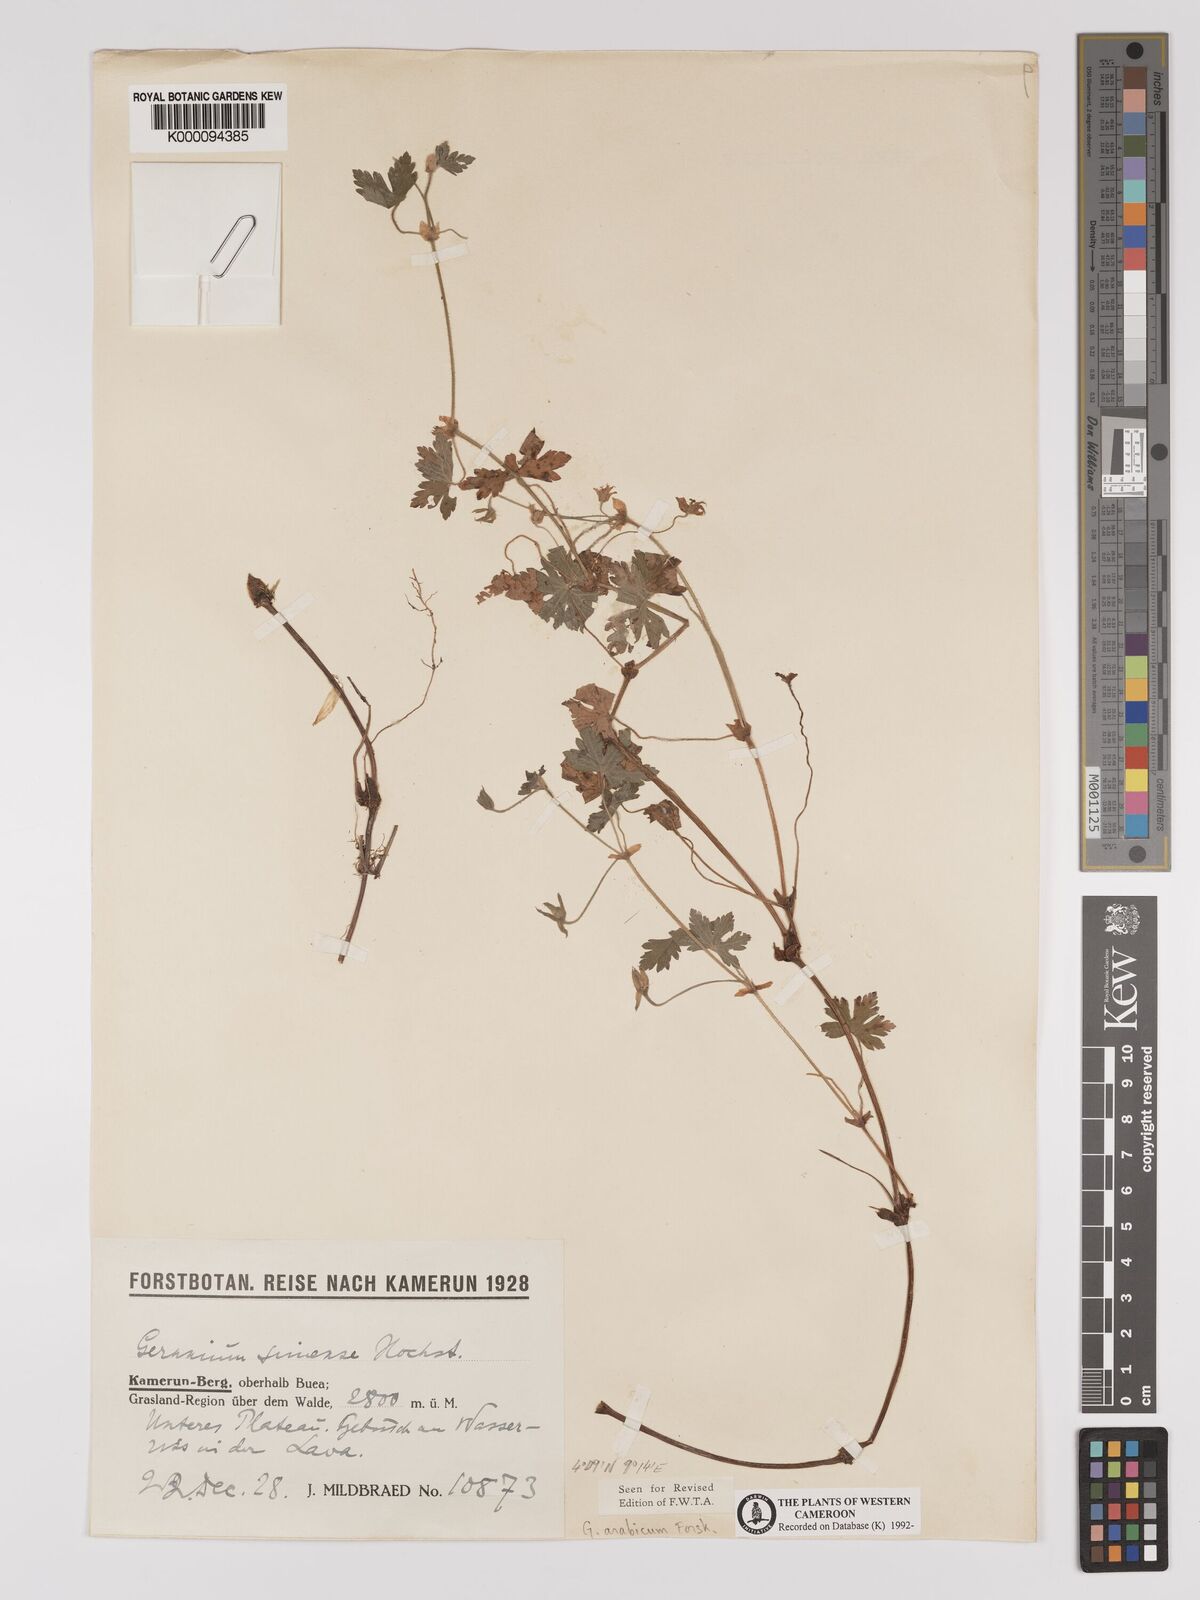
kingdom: Plantae
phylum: Tracheophyta
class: Magnoliopsida
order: Geraniales
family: Geraniaceae
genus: Geranium
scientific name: Geranium arabicum
